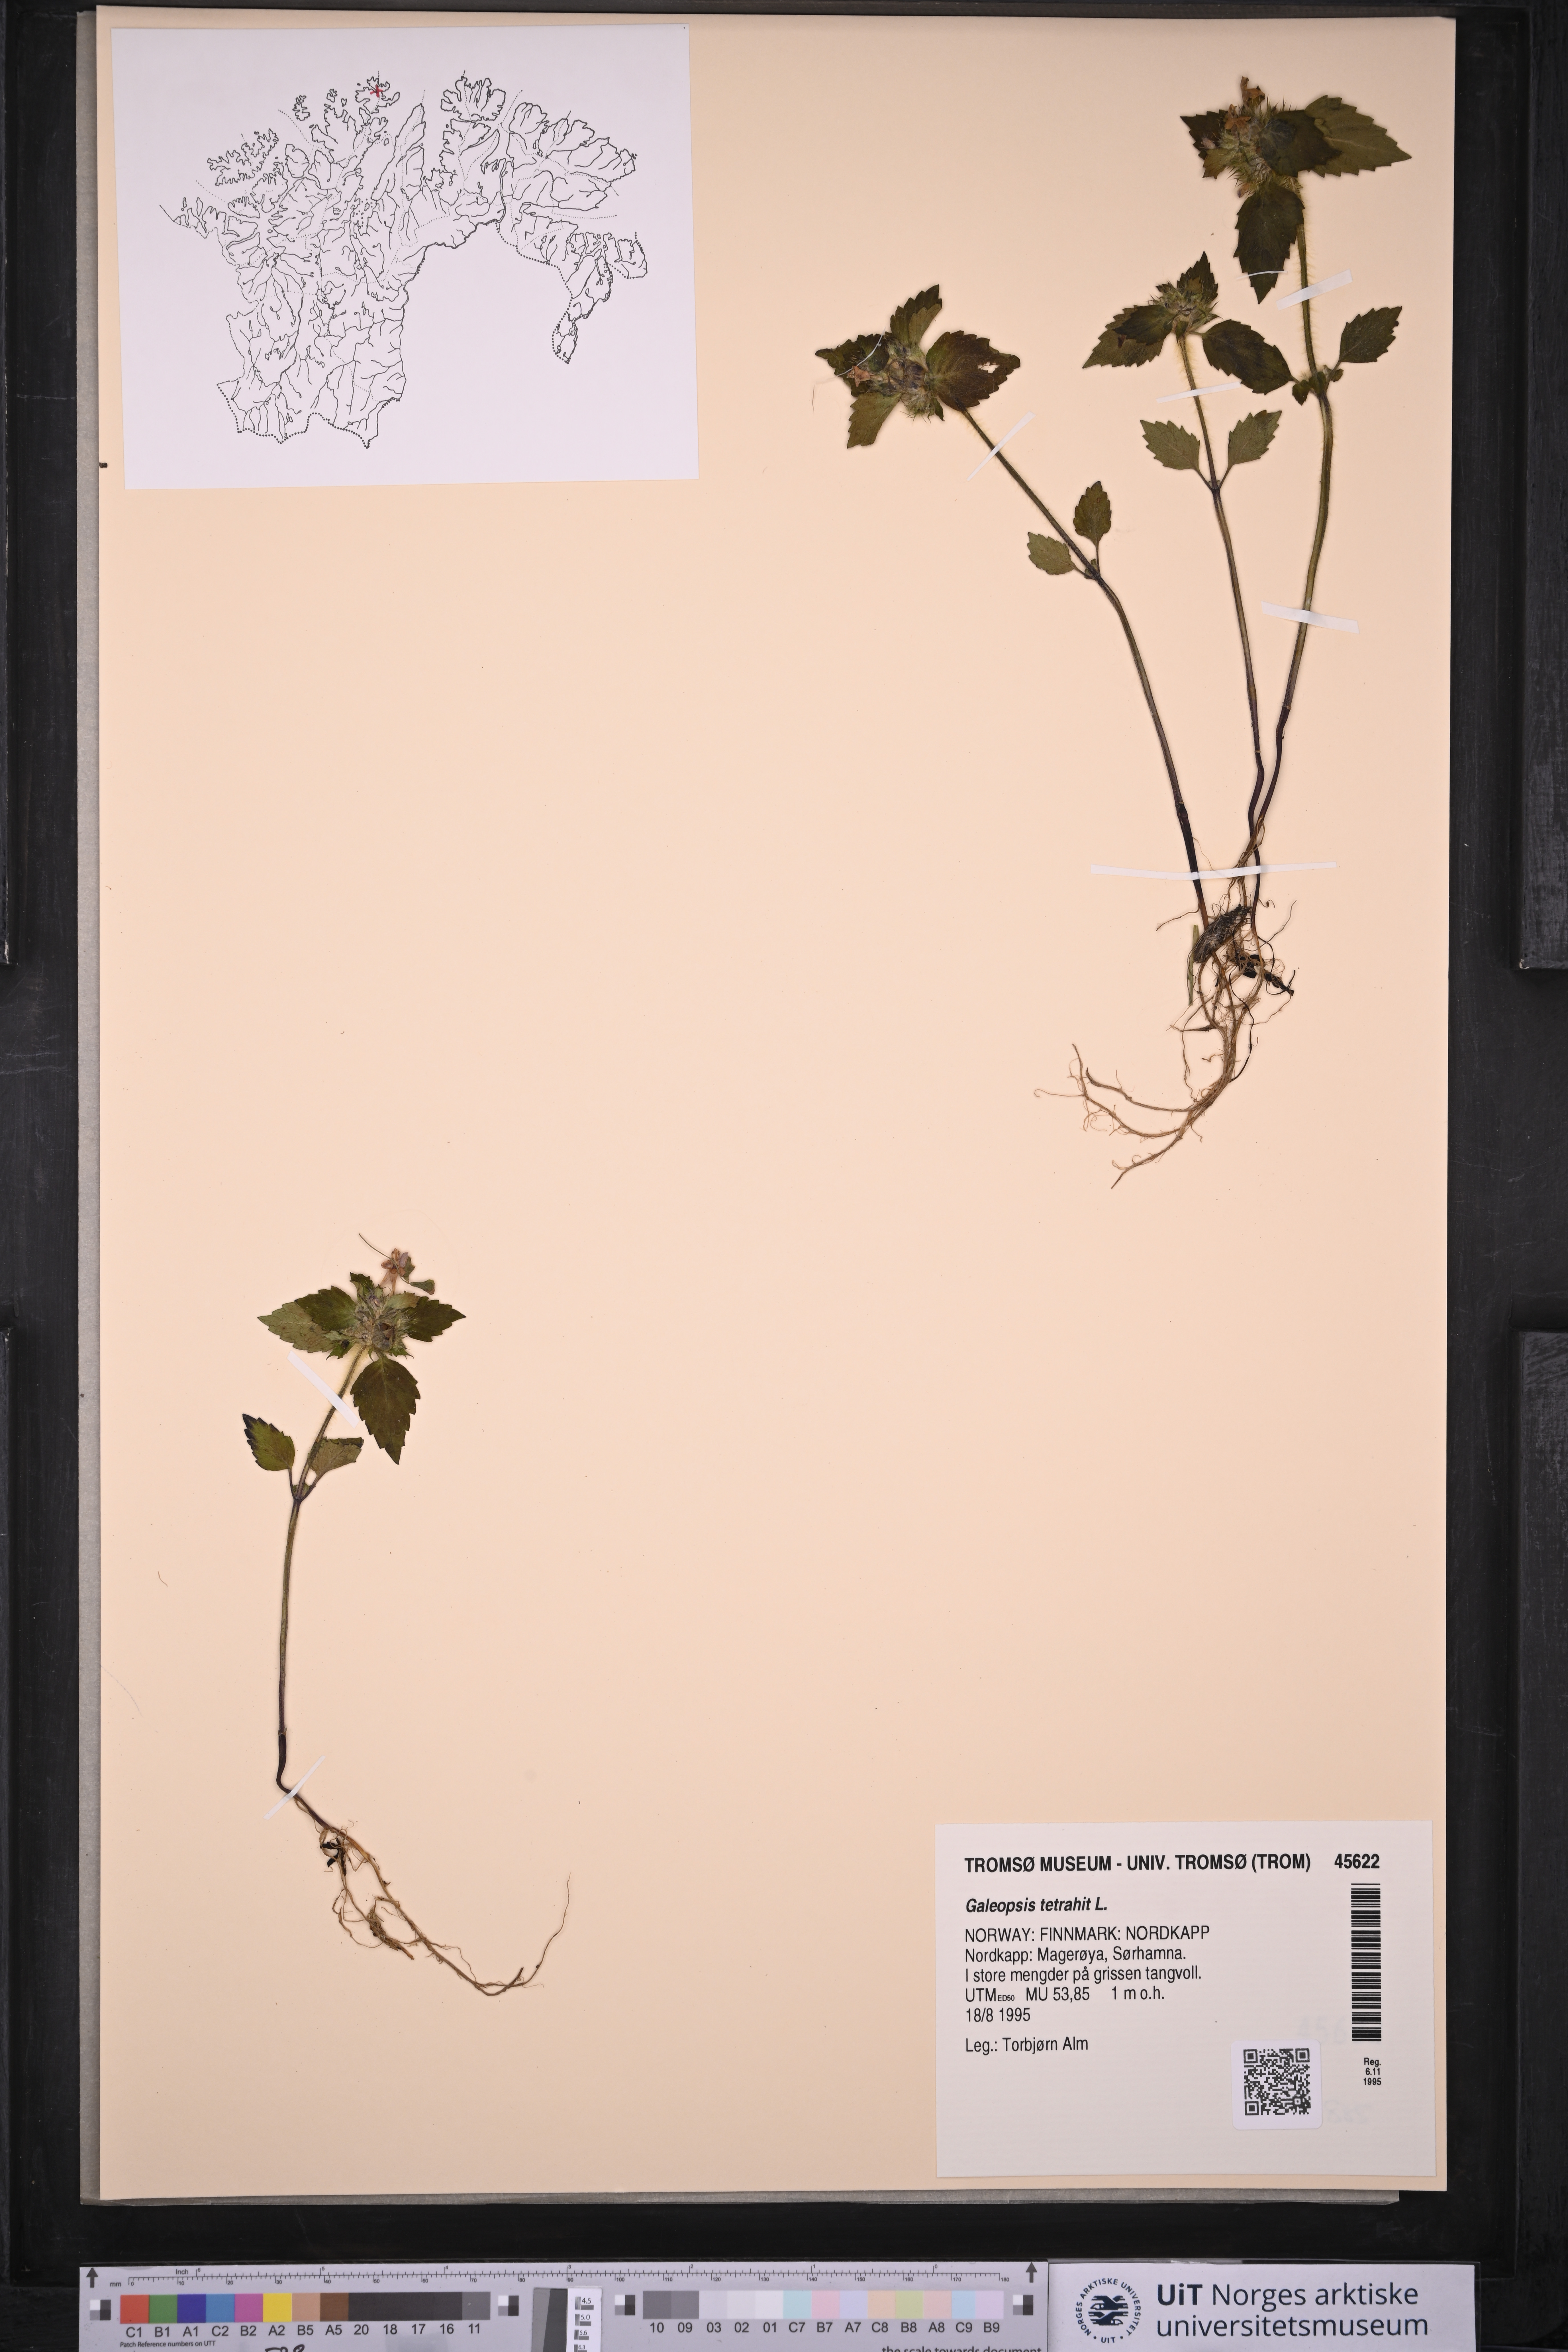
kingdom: Plantae
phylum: Tracheophyta
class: Magnoliopsida
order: Lamiales
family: Lamiaceae
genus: Galeopsis
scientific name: Galeopsis tetrahit
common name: Common hemp-nettle
